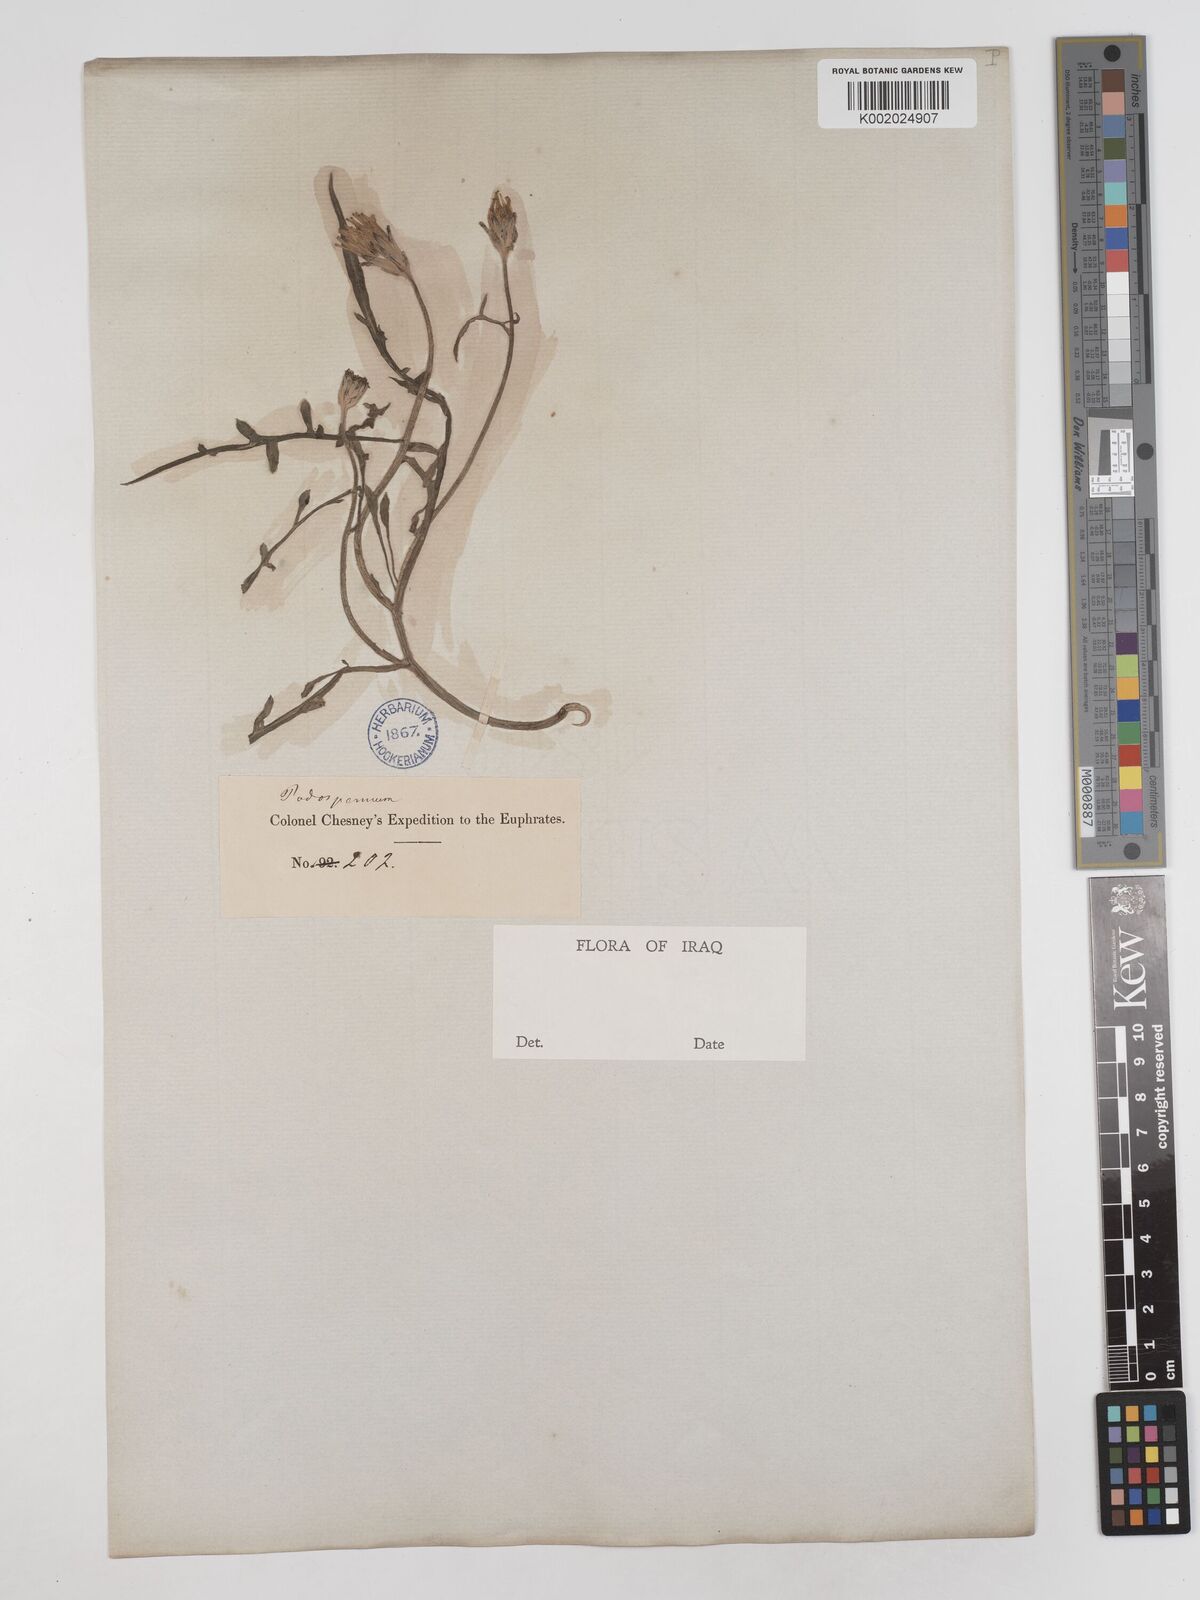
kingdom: Plantae
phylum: Tracheophyta
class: Magnoliopsida
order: Asterales
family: Asteraceae
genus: Scorzonera
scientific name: Scorzonera cana
